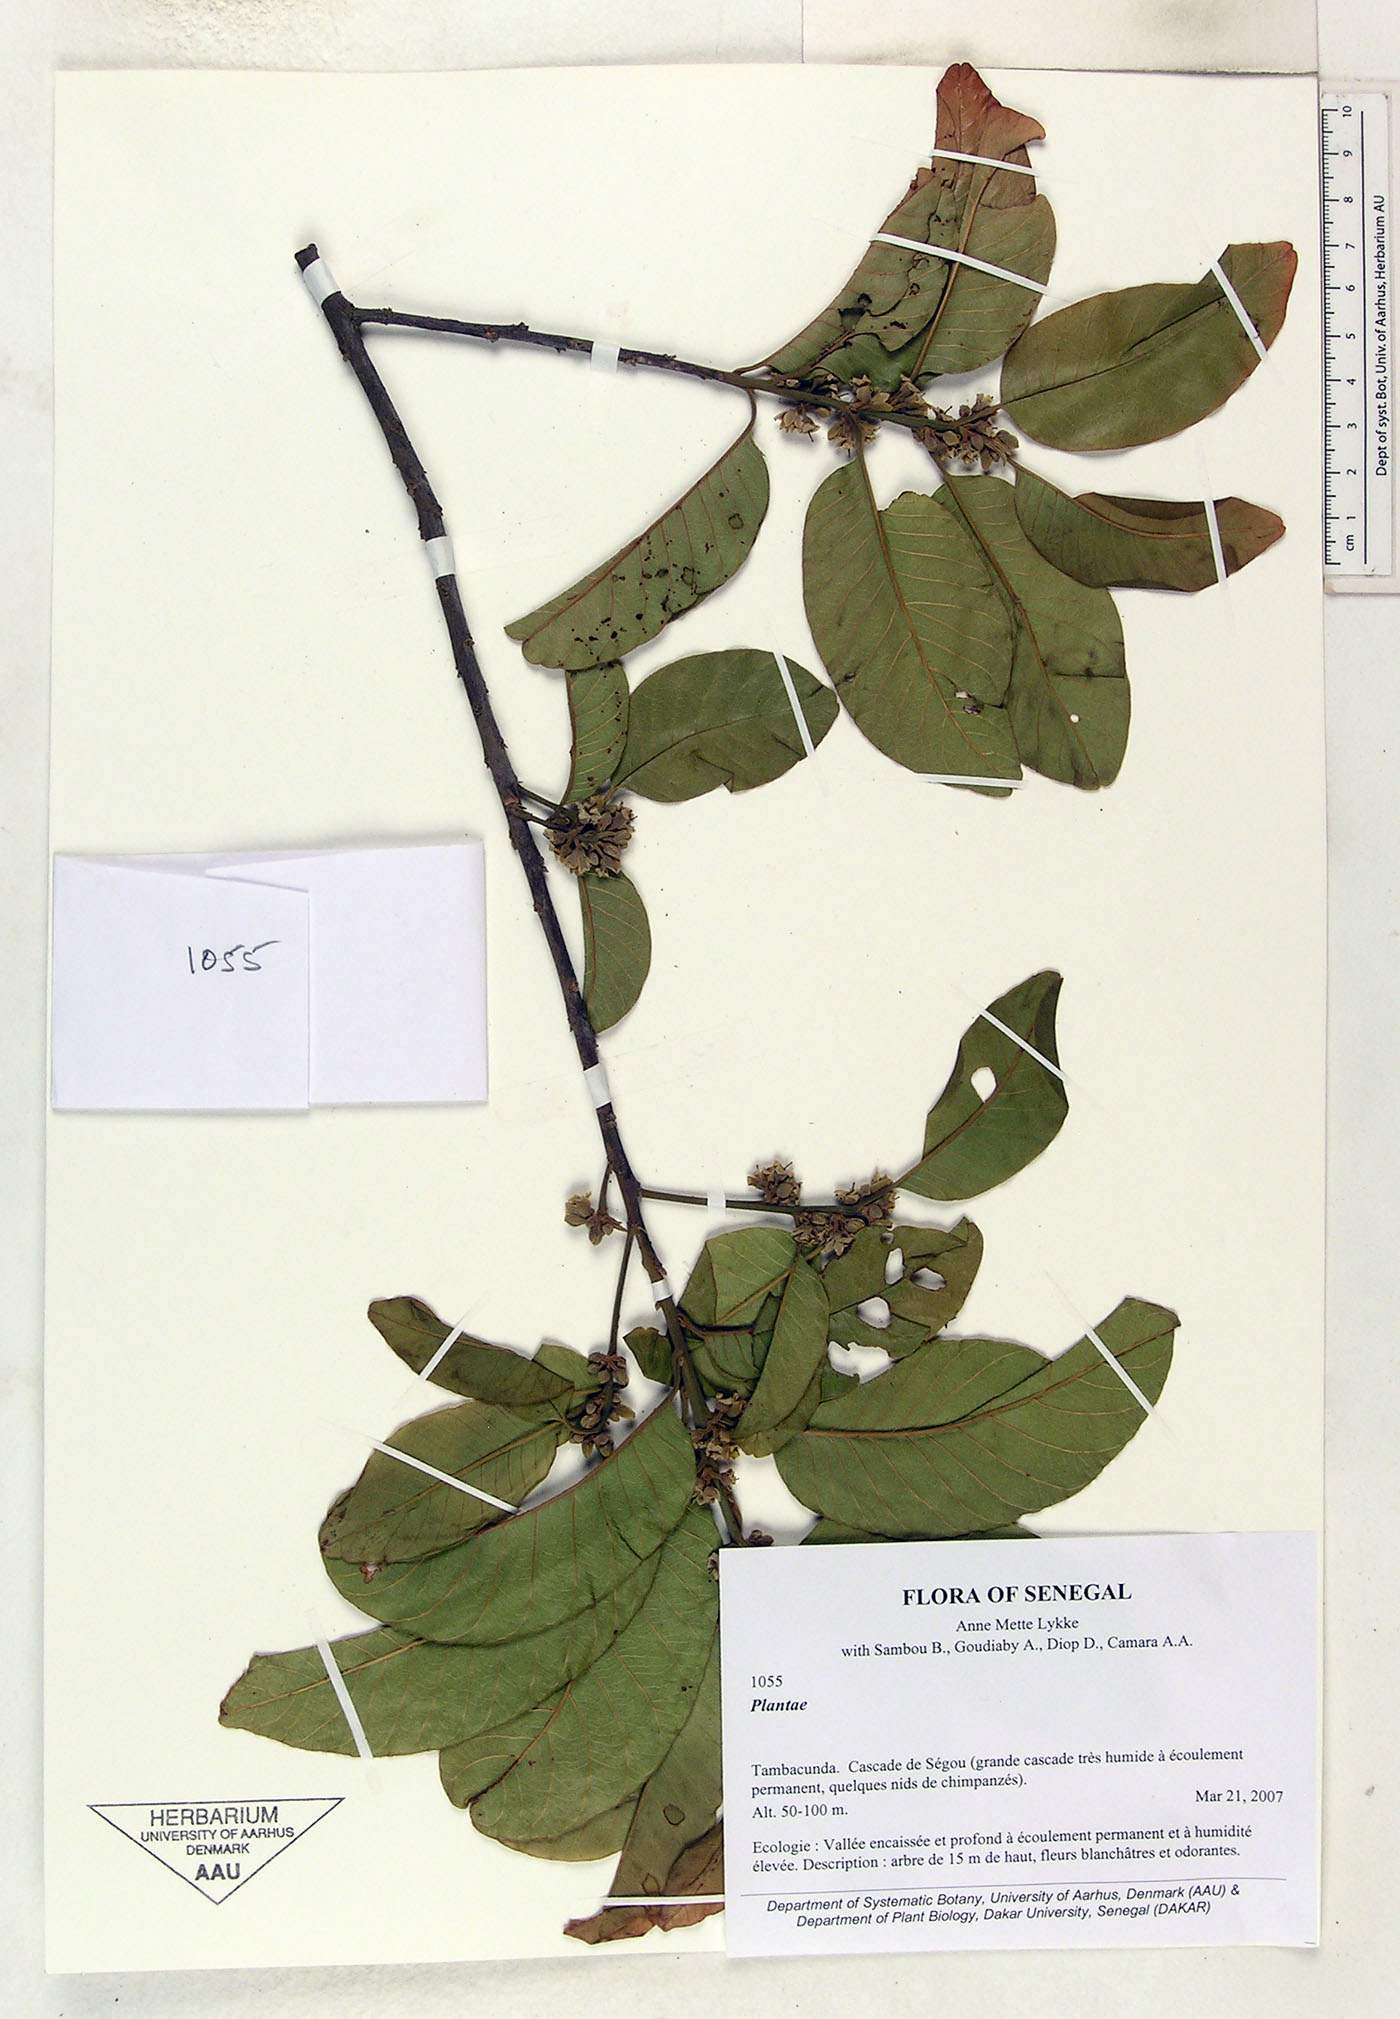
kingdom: Plantae
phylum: Tracheophyta
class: Magnoliopsida
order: Ericales
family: Sapotaceae
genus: Aningeria
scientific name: Aningeria pierrei
